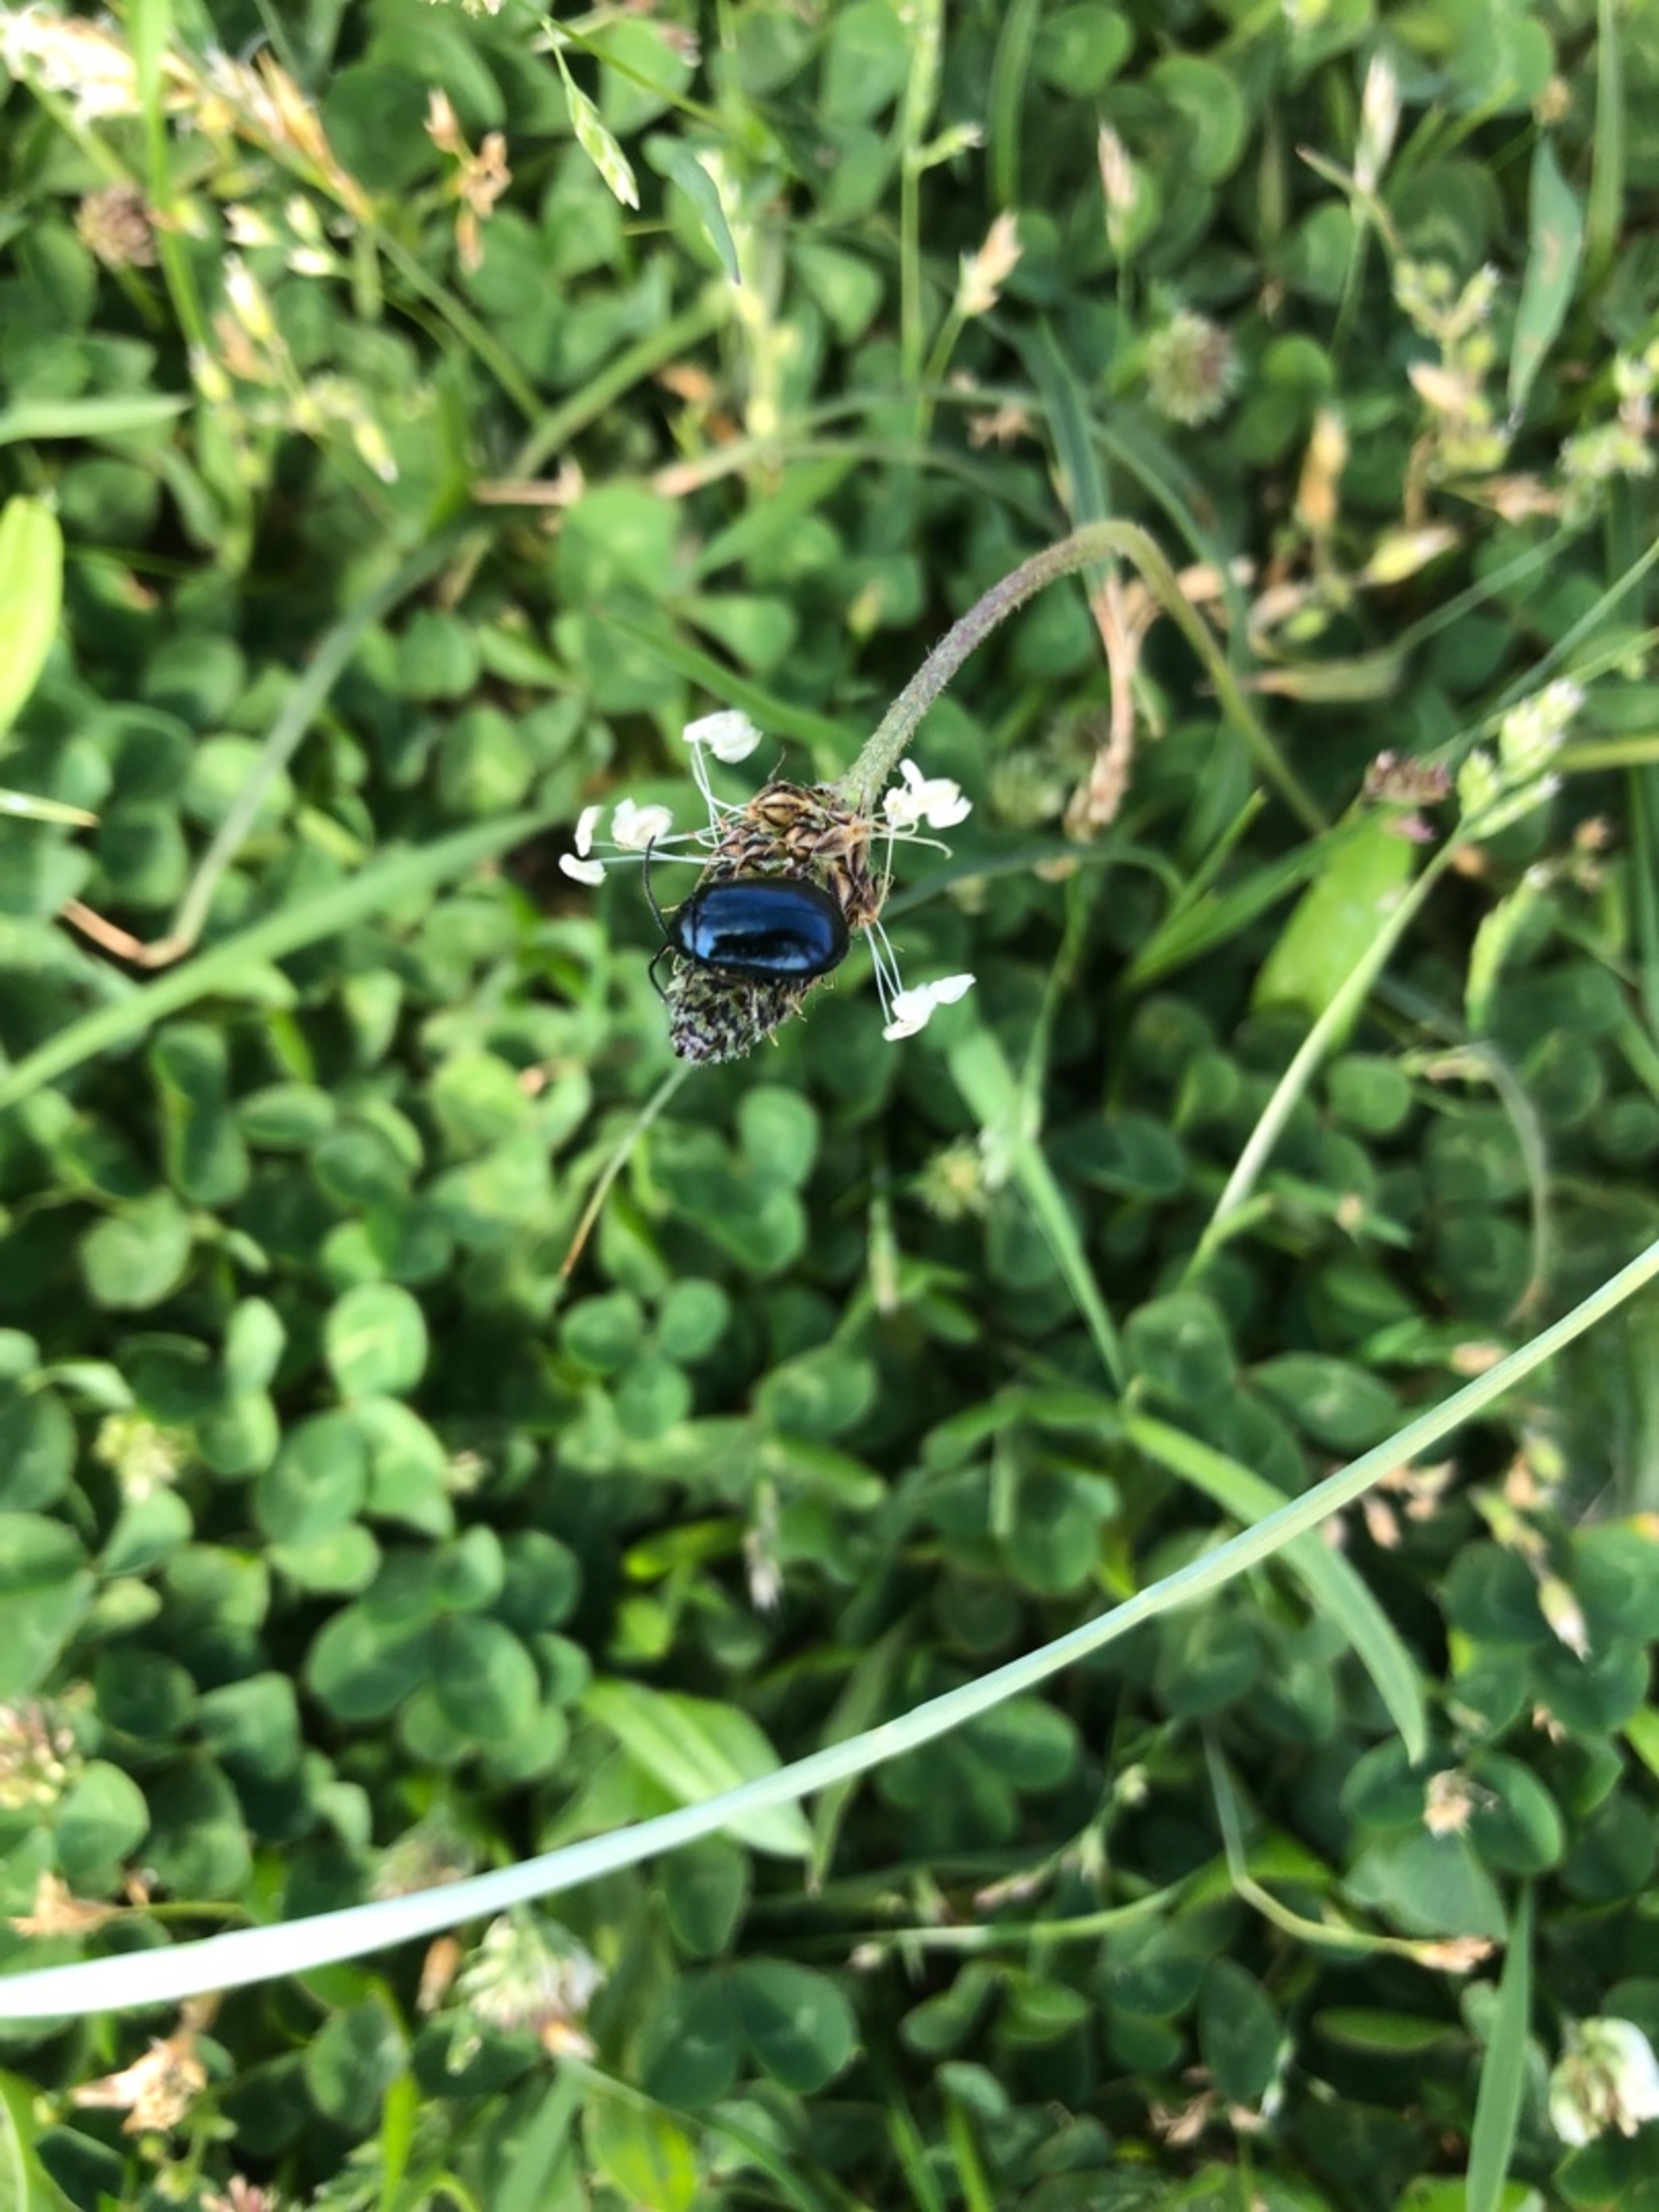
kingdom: Animalia
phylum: Arthropoda
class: Insecta
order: Coleoptera
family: Chrysomelidae
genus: Agelastica
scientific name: Agelastica alni
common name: Ellebladbille
